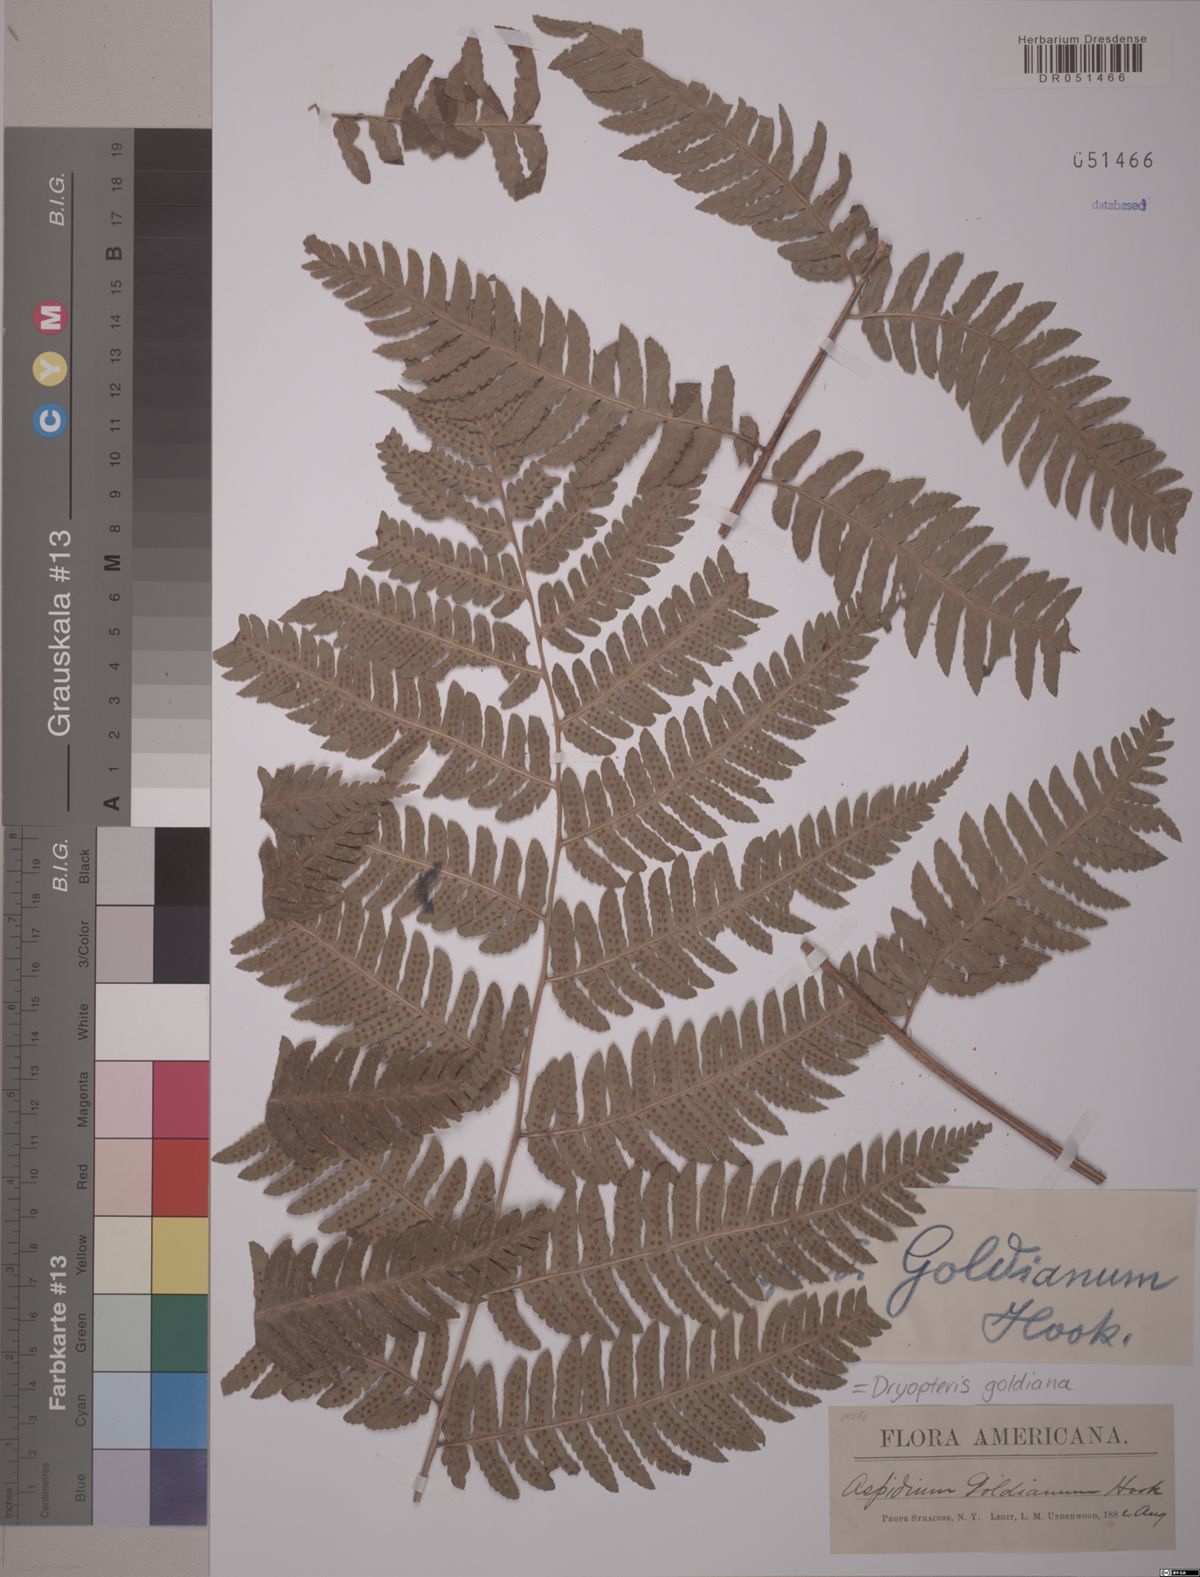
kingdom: Plantae
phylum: Tracheophyta
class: Polypodiopsida
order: Polypodiales
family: Dryopteridaceae
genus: Dryopteris
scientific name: Dryopteris goeldiana
